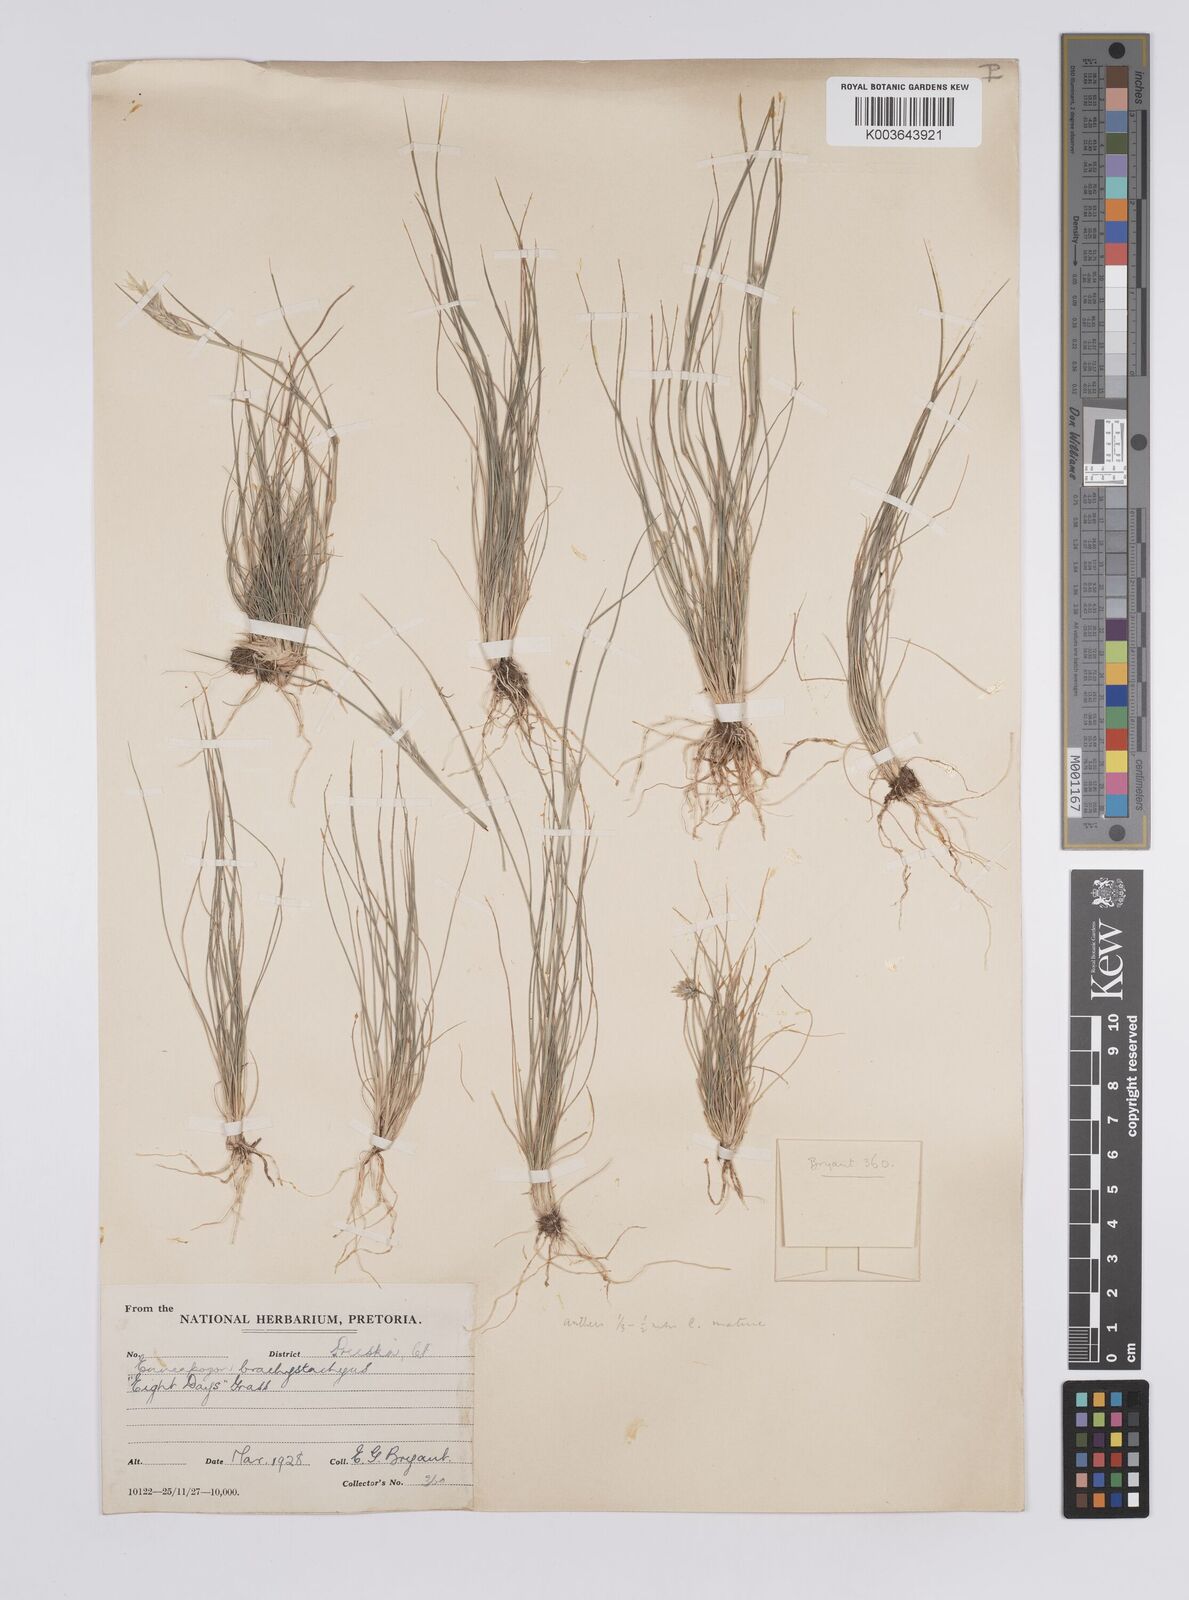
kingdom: Plantae
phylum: Tracheophyta
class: Liliopsida
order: Poales
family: Poaceae
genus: Enneapogon
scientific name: Enneapogon desvauxii
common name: Feather pappus grass
